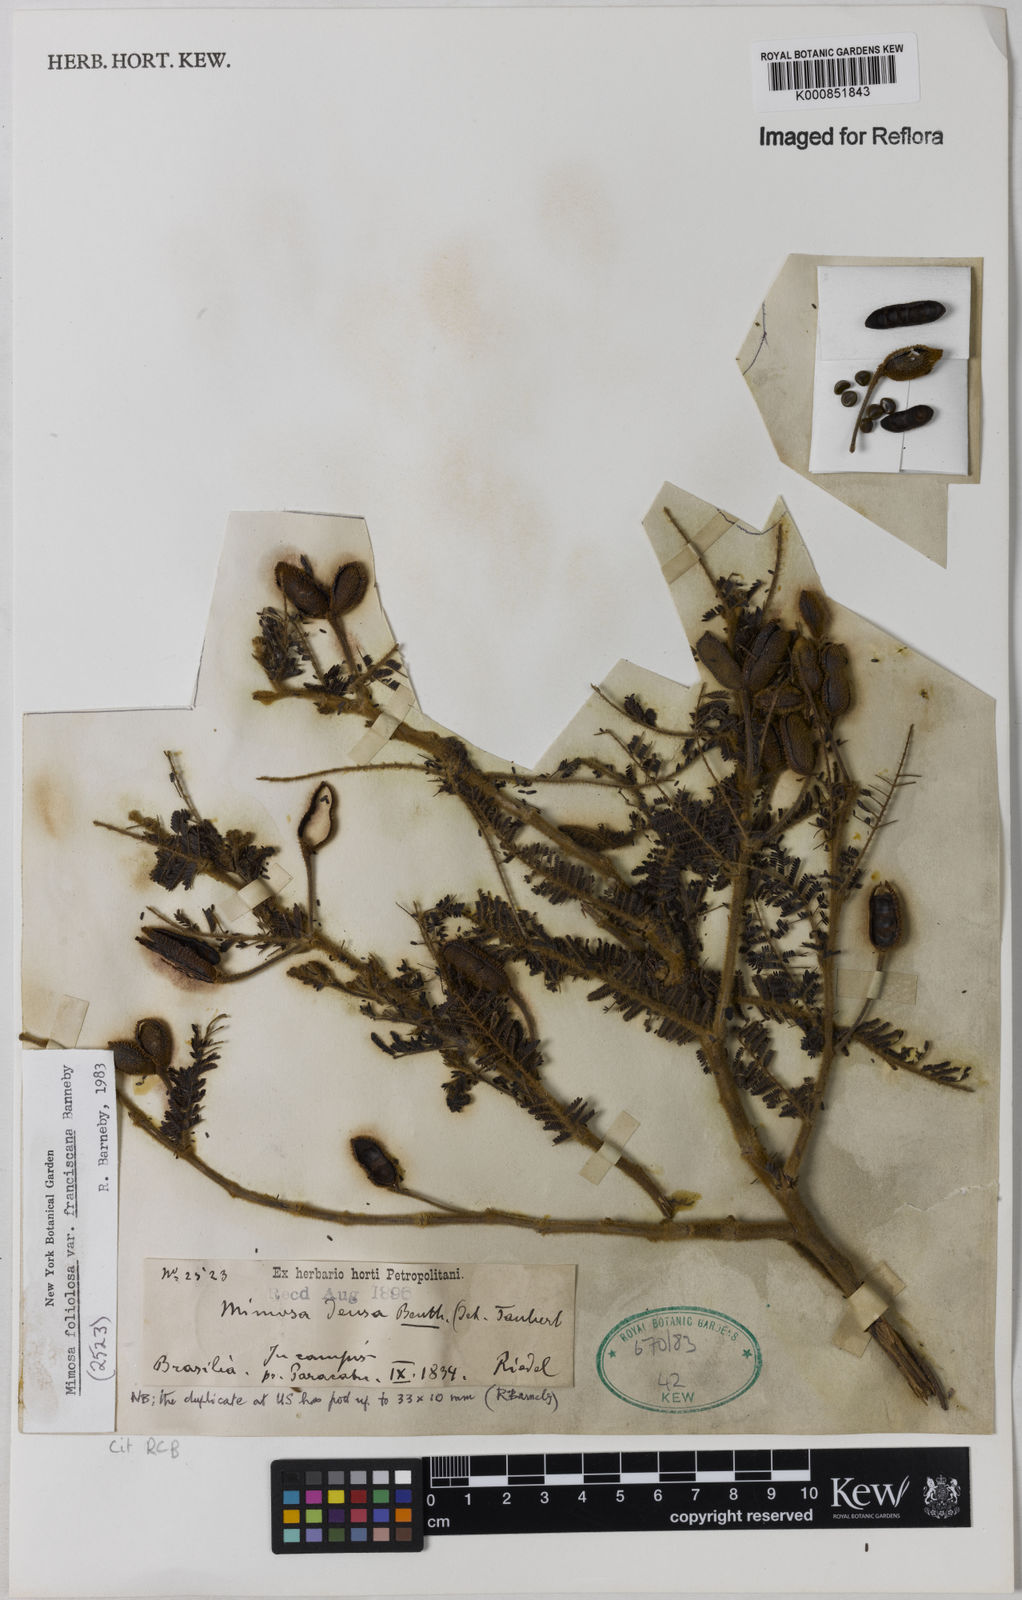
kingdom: Plantae
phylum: Tracheophyta
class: Magnoliopsida
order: Fabales
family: Fabaceae
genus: Mimosa
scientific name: Mimosa foliolosa
